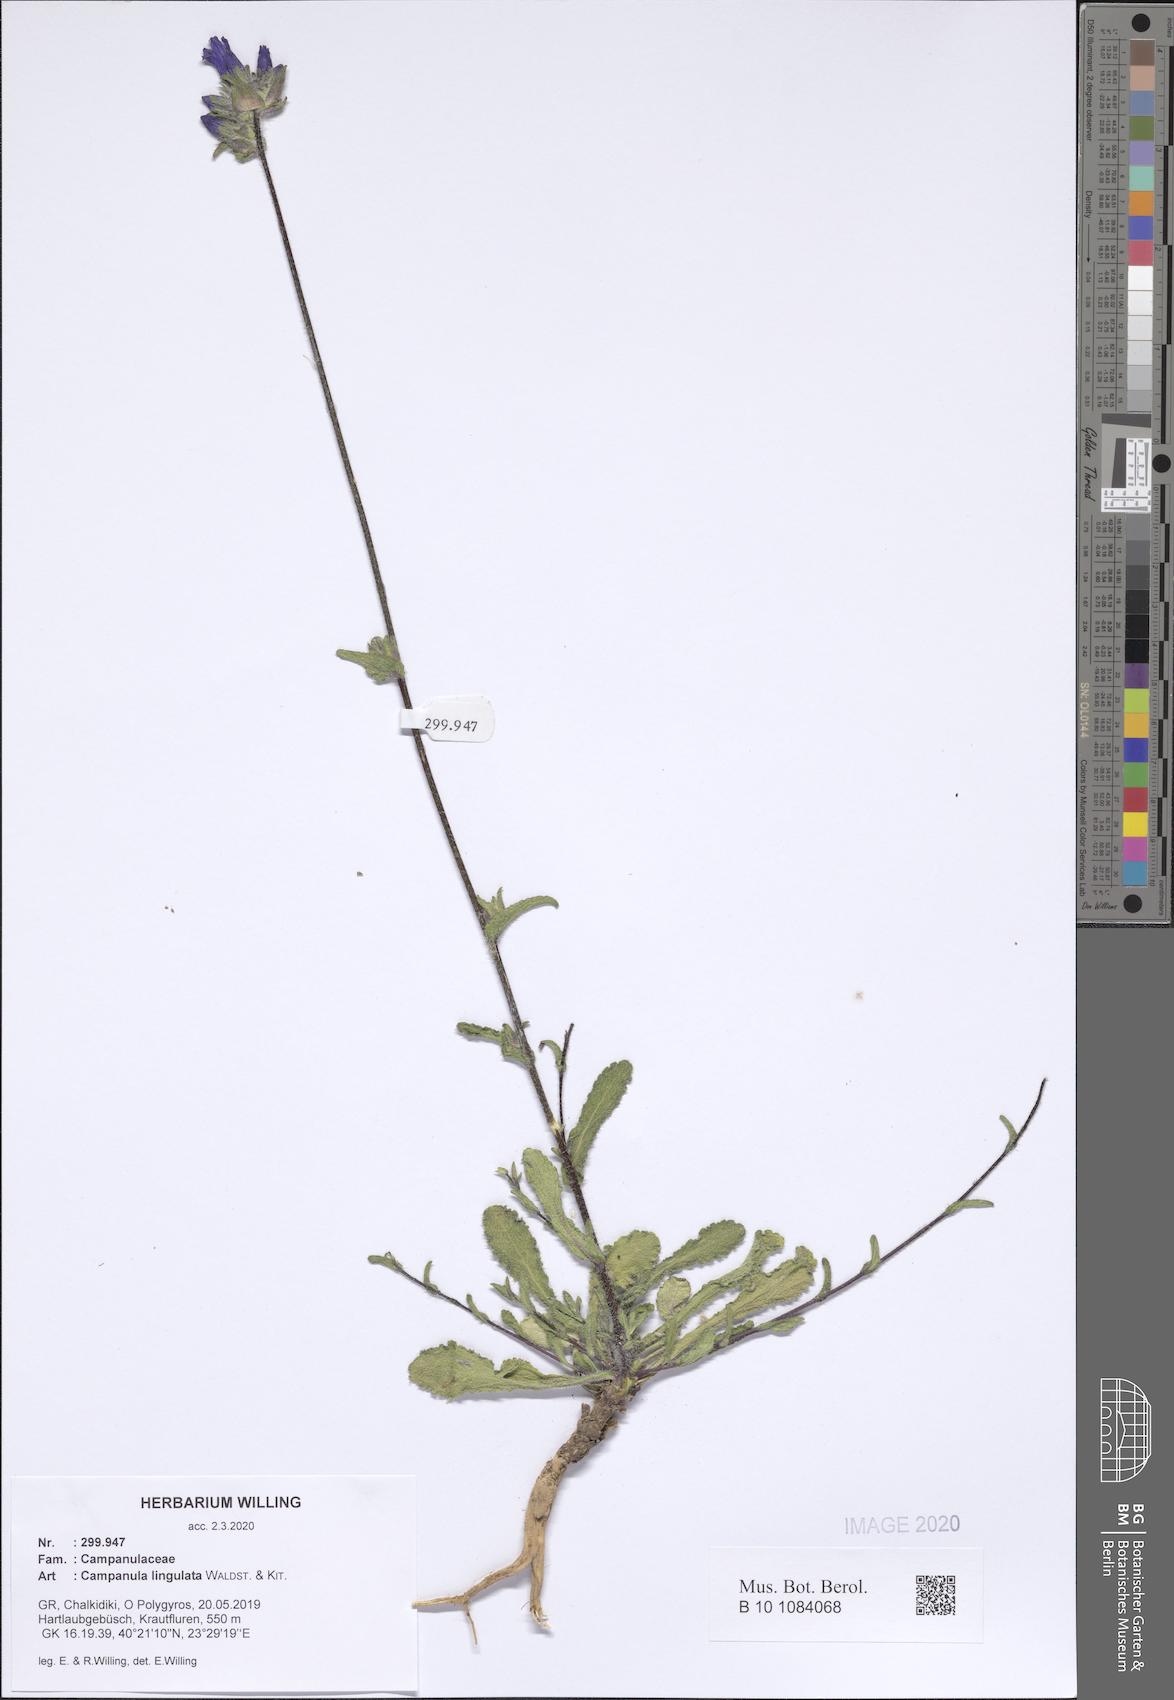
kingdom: Plantae
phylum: Tracheophyta
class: Magnoliopsida
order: Asterales
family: Campanulaceae
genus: Campanula
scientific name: Campanula lingulata
